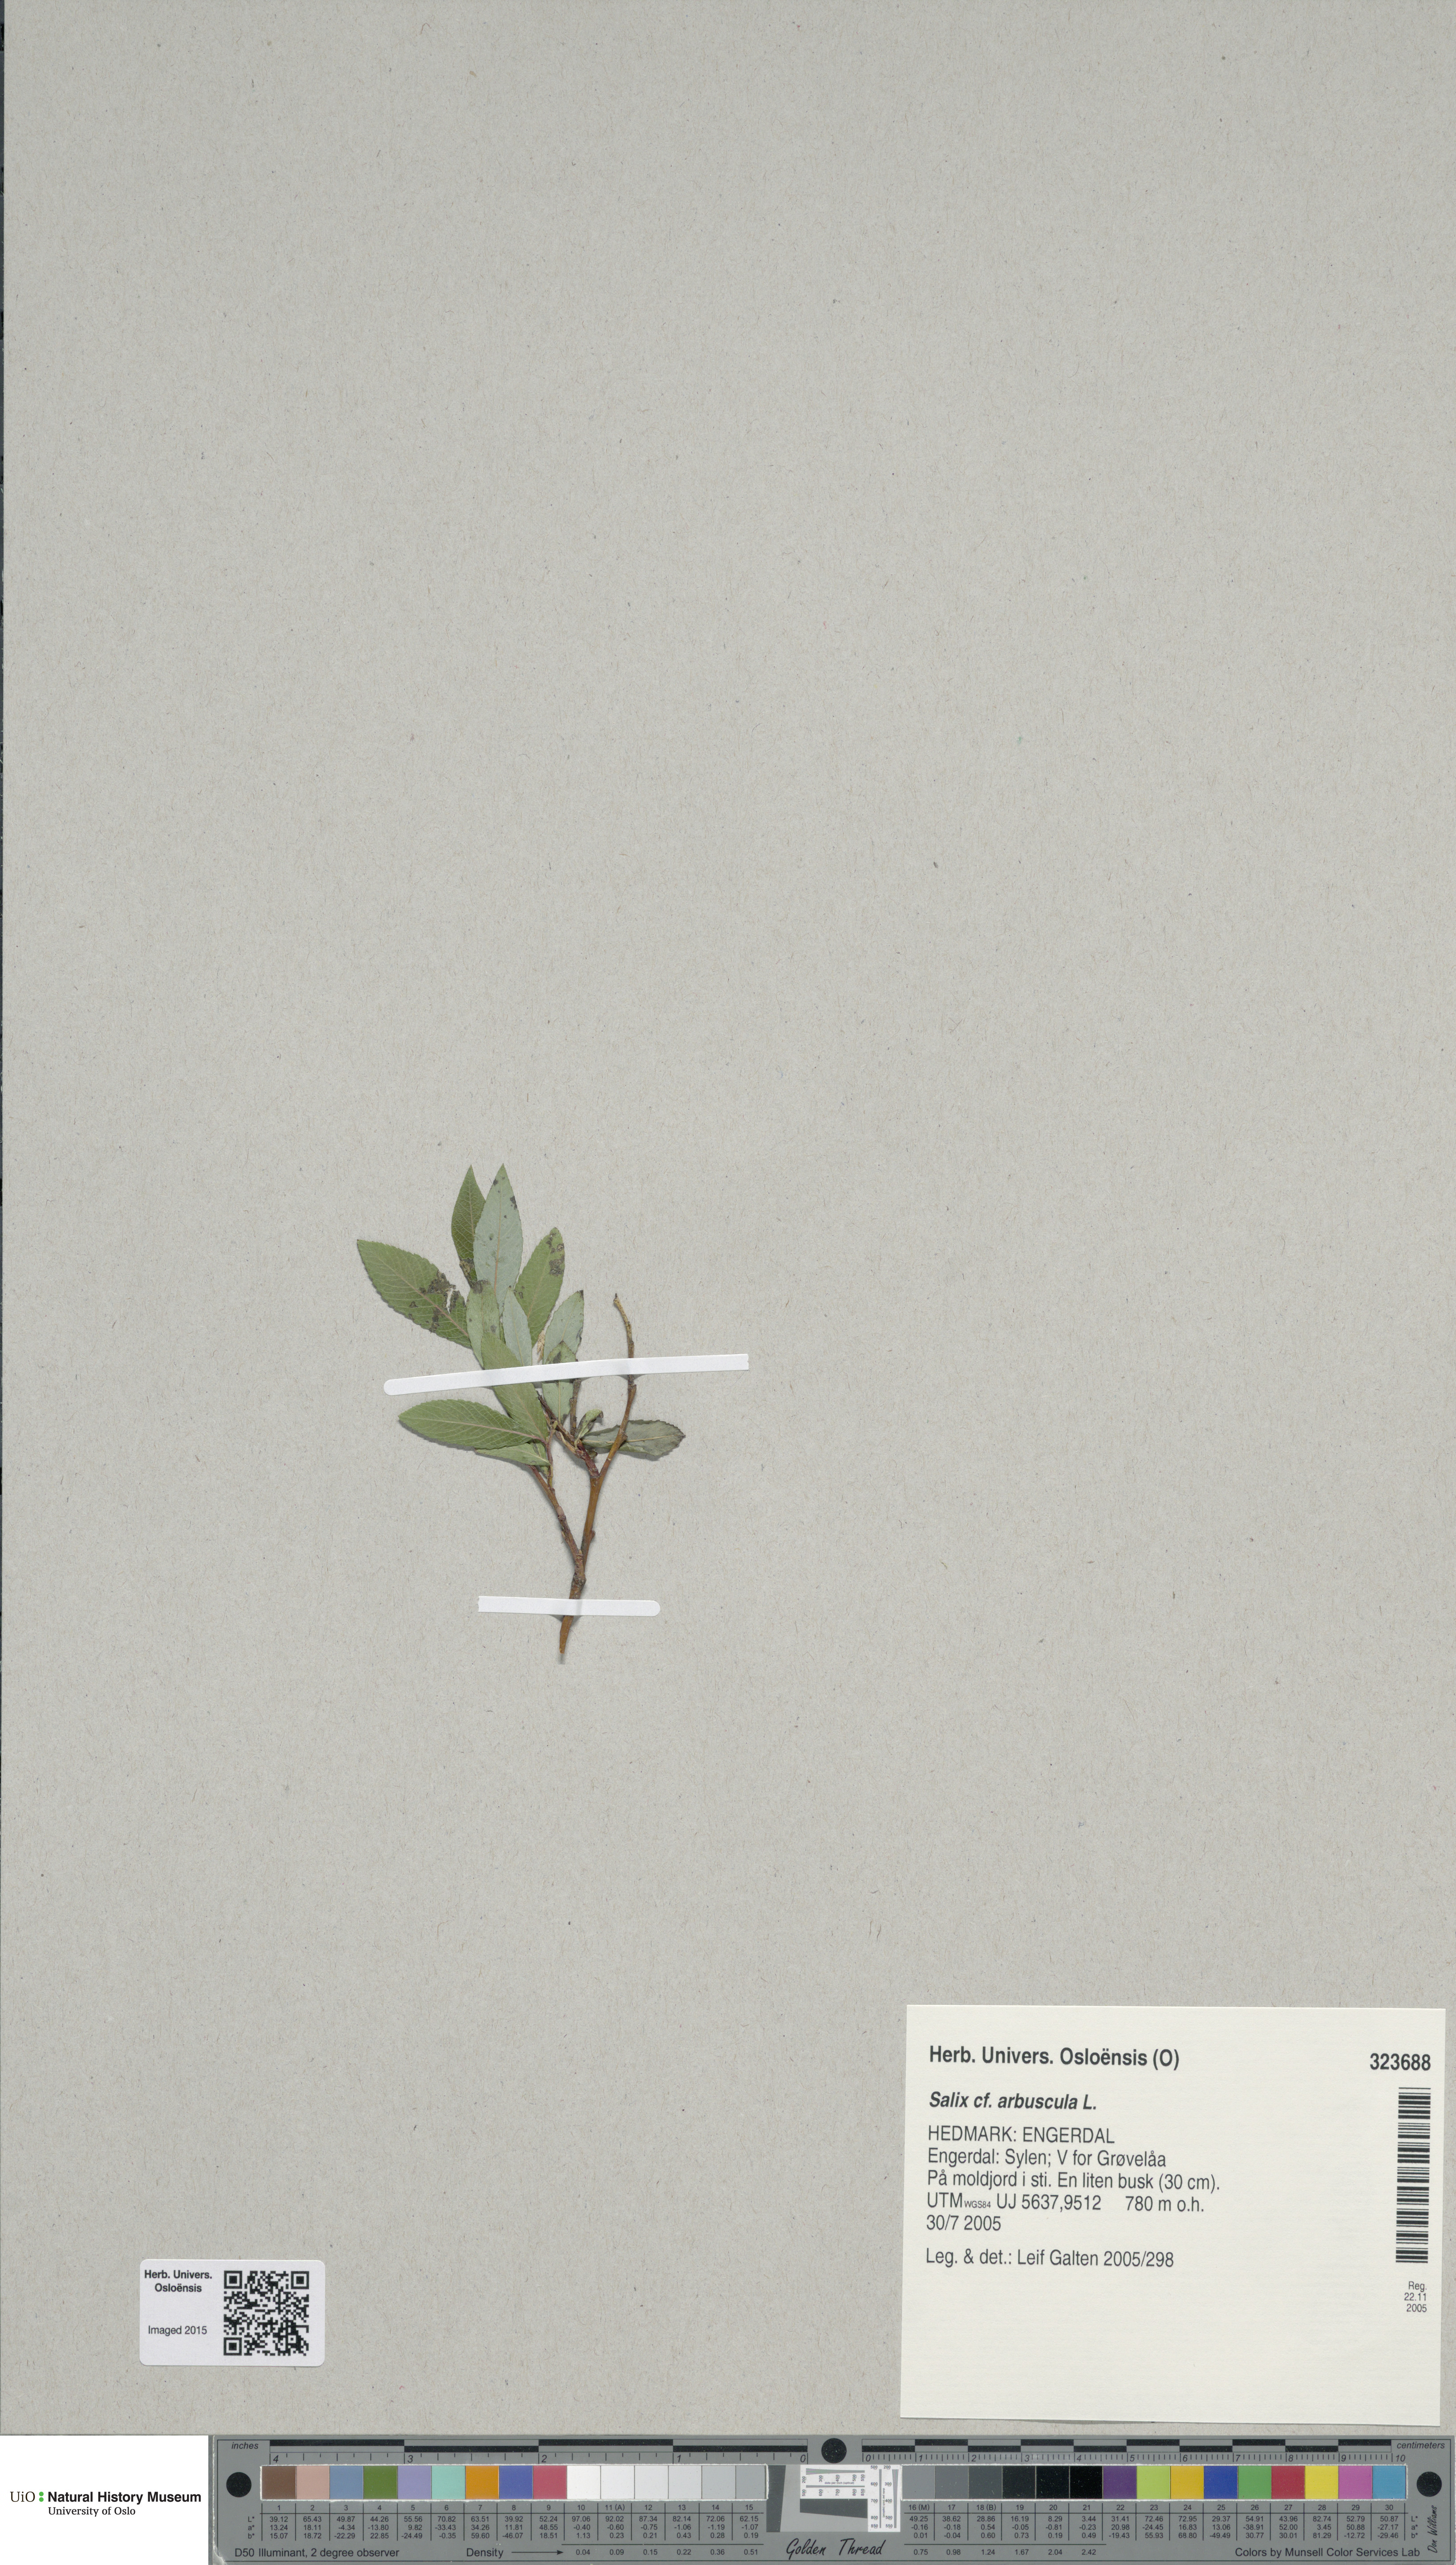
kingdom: Plantae
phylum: Tracheophyta
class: Magnoliopsida
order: Malpighiales
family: Salicaceae
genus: Salix
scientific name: Salix arbuscula
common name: Mountain willow
